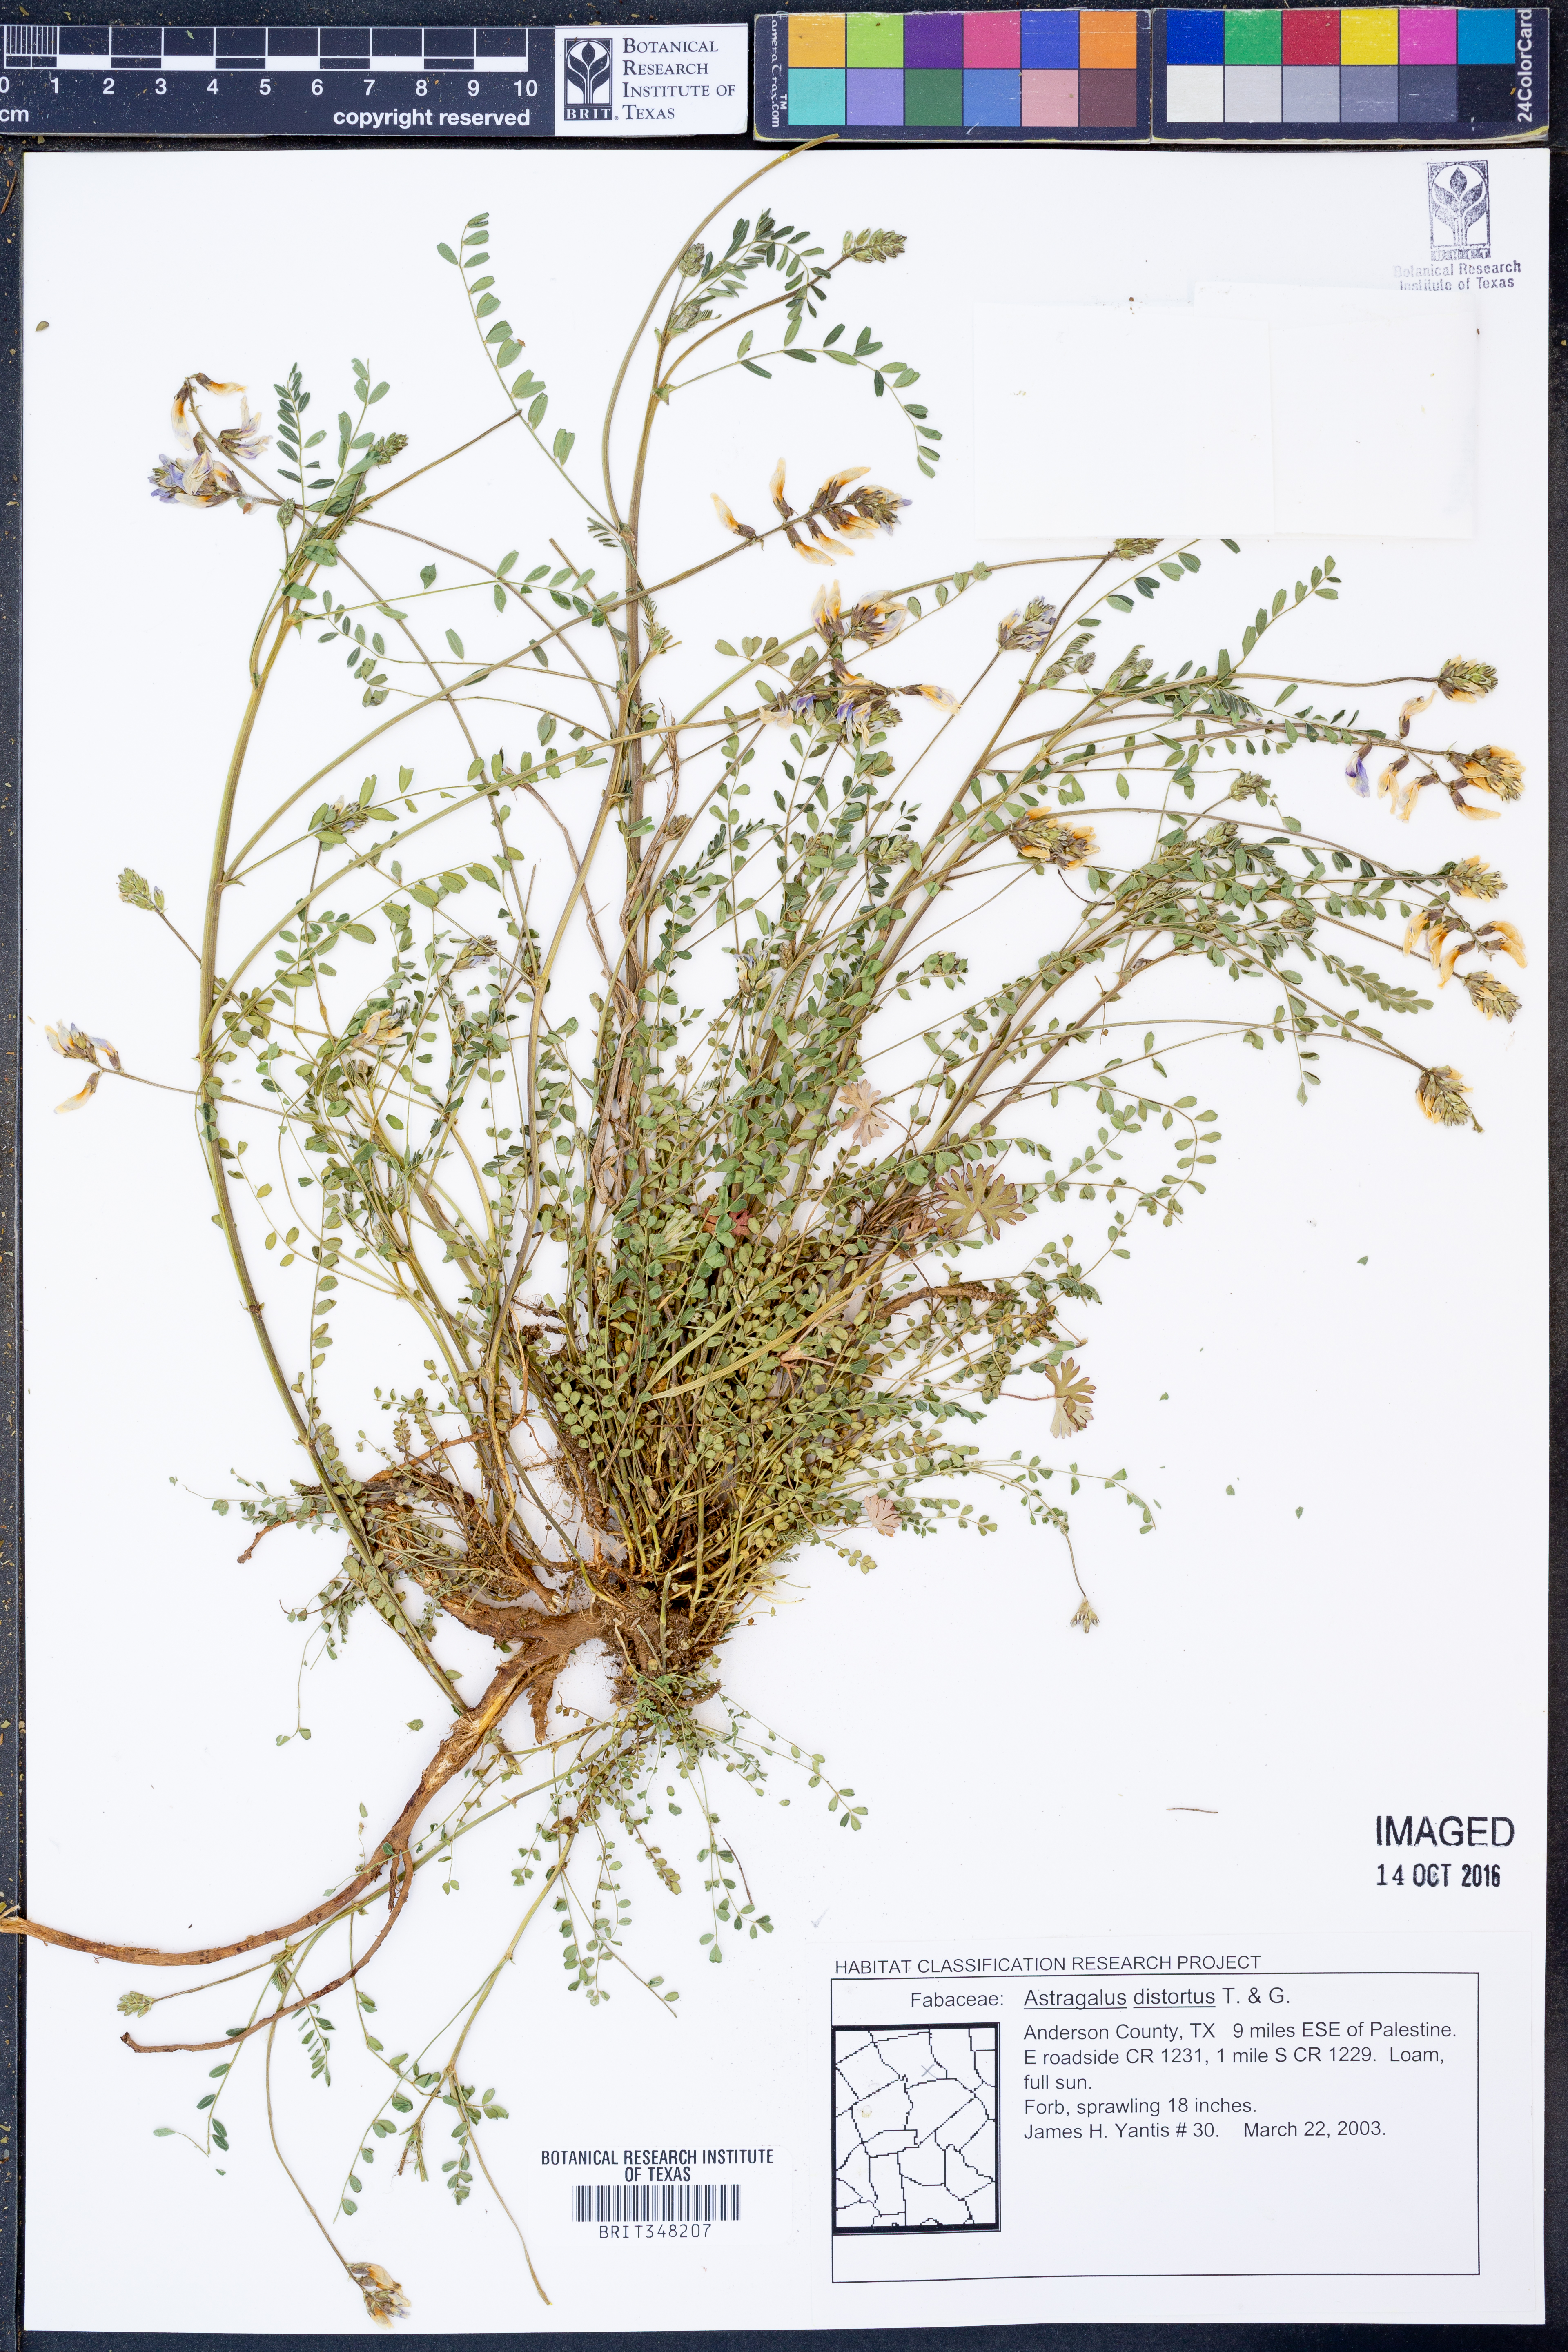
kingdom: Plantae
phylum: Tracheophyta
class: Magnoliopsida
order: Fabales
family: Fabaceae
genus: Astragalus
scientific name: Astragalus distortus
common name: Ozark milk-vetch
